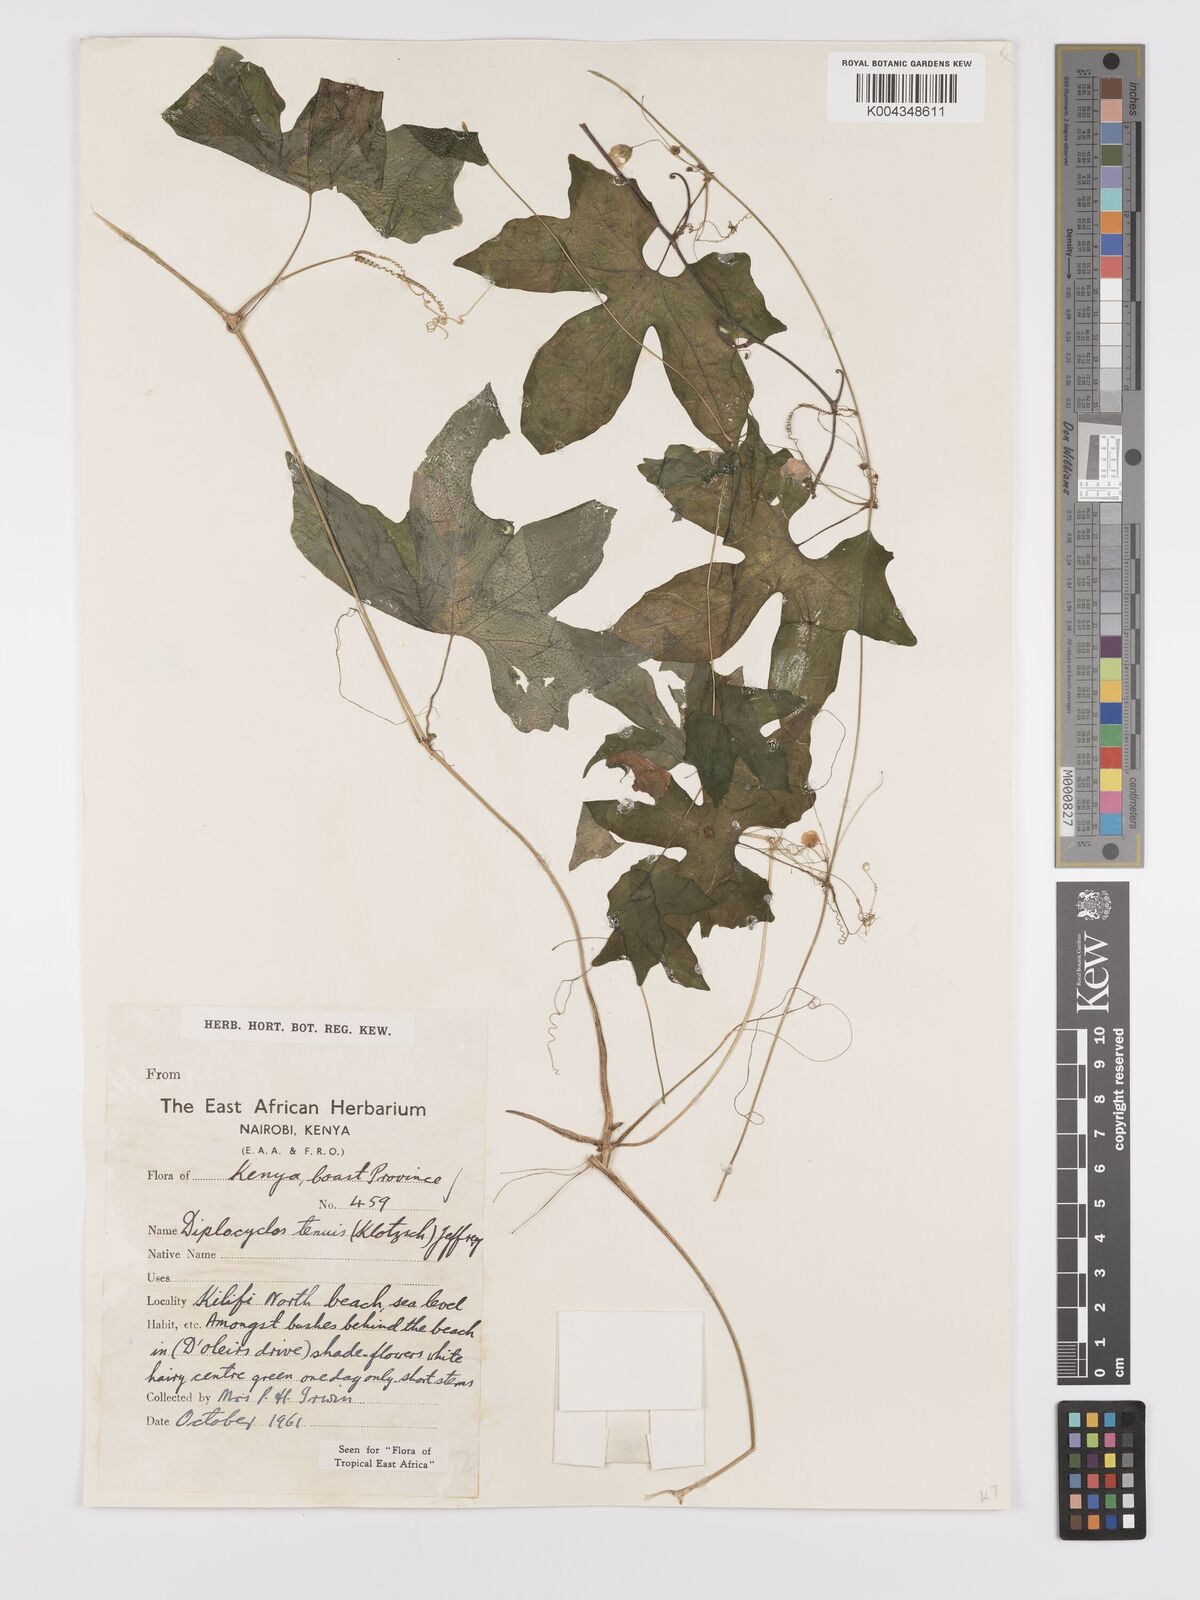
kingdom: Plantae
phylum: Tracheophyta
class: Magnoliopsida
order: Cucurbitales
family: Cucurbitaceae
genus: Diplocyclos
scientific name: Diplocyclos tenuis
